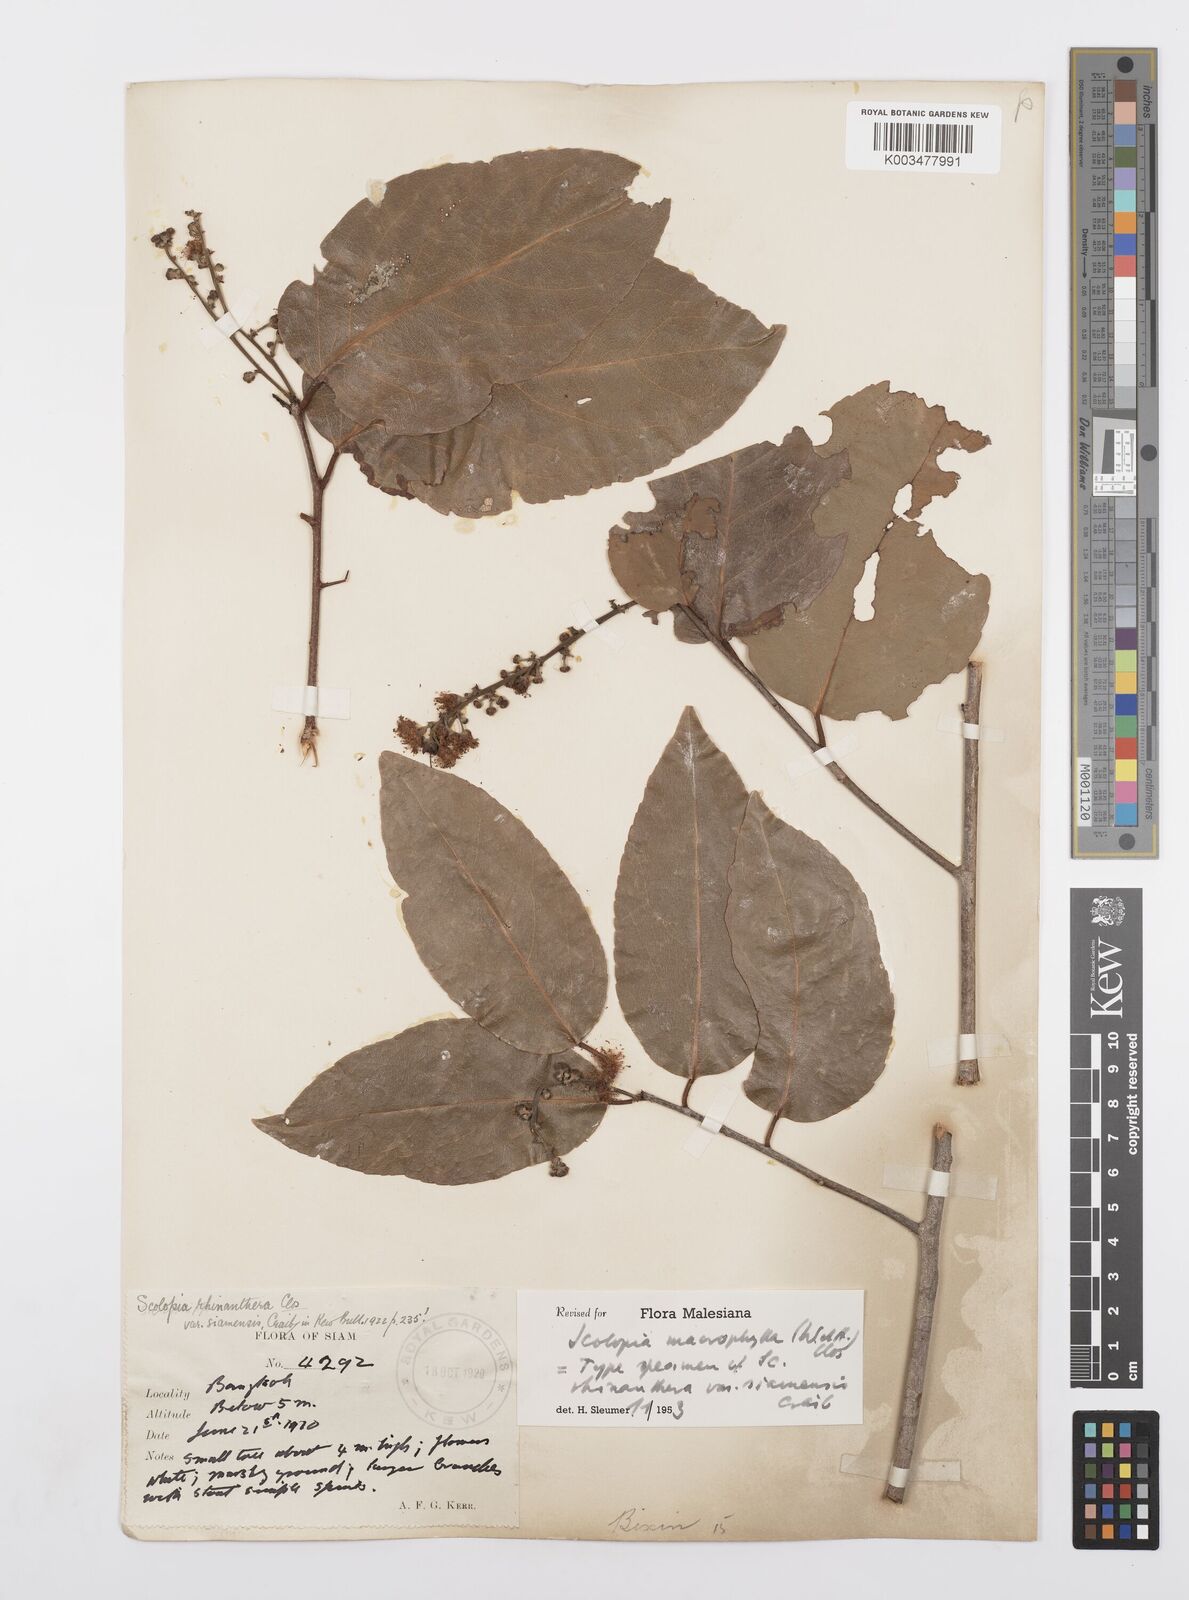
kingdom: Plantae
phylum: Tracheophyta
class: Magnoliopsida
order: Malpighiales
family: Salicaceae
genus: Scolopia
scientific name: Scolopia macrophylla
